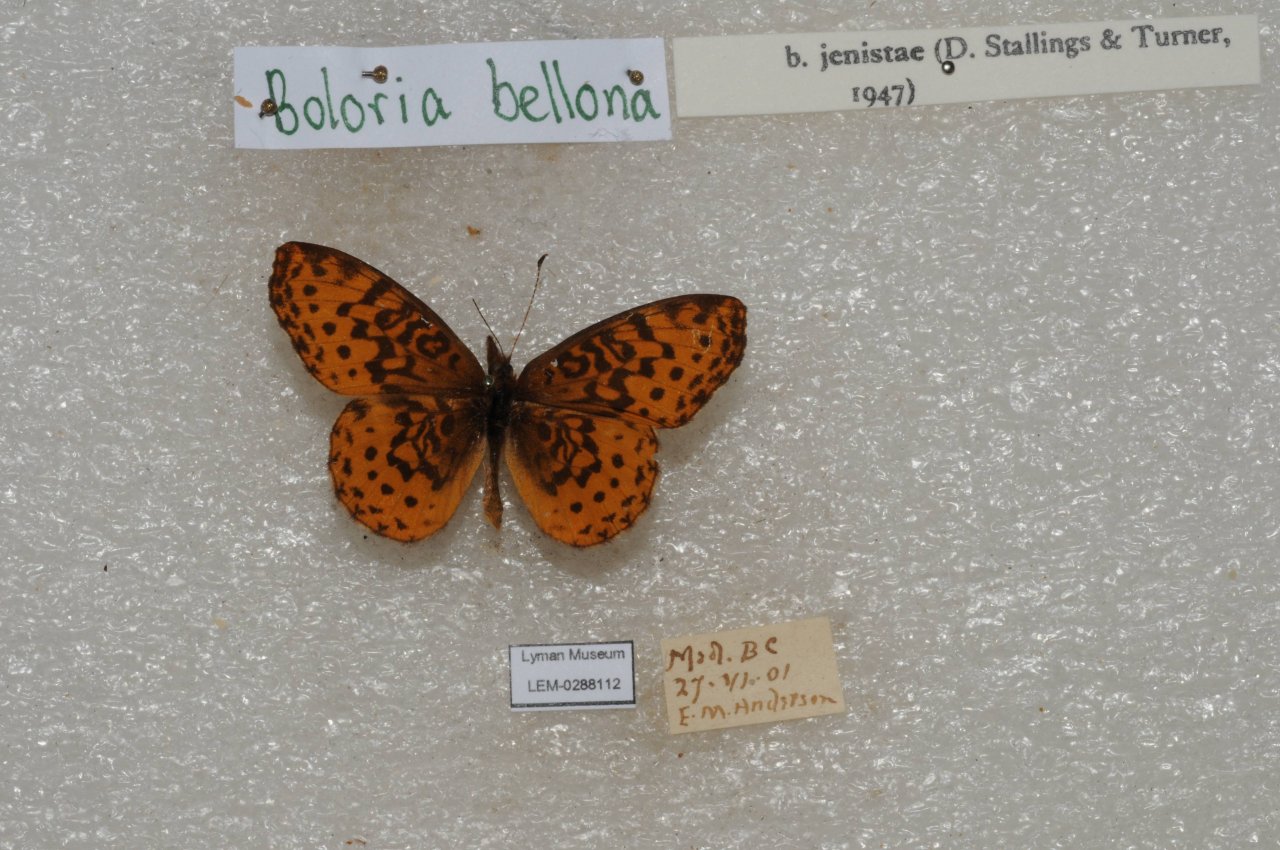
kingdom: Animalia
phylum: Arthropoda
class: Insecta
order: Lepidoptera
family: Nymphalidae
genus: Clossiana
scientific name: Clossiana toddi
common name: Meadow Fritillary
